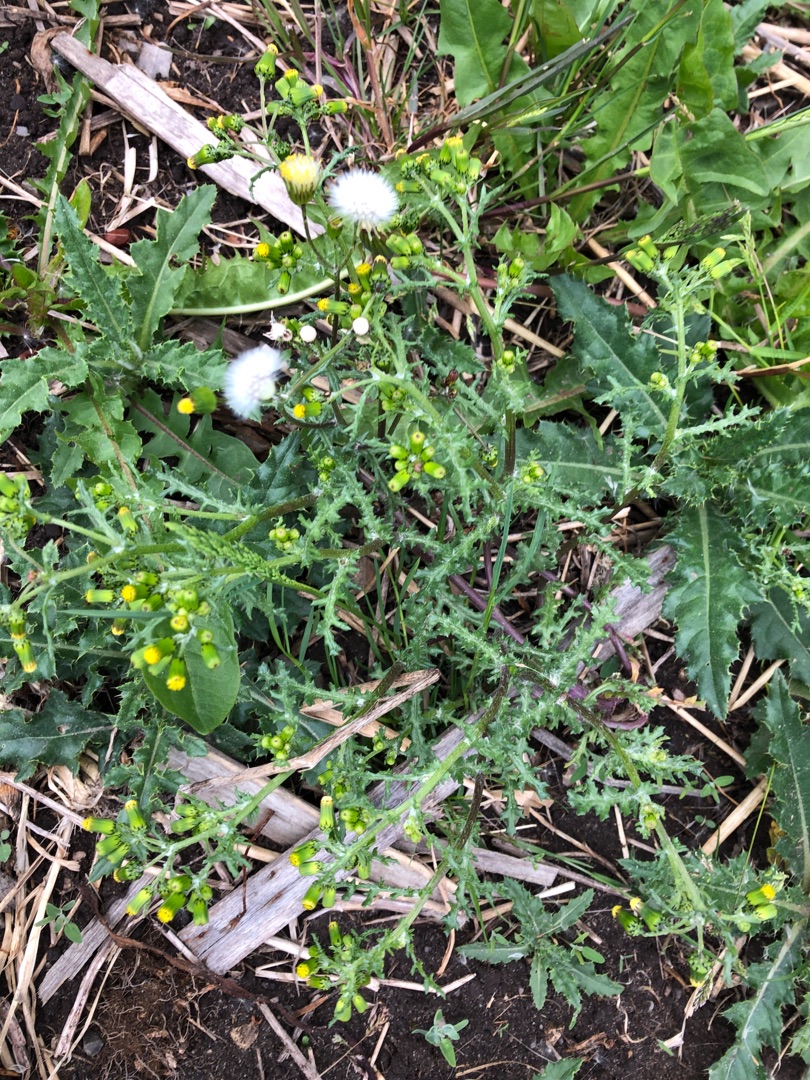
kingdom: Plantae
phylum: Tracheophyta
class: Magnoliopsida
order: Asterales
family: Asteraceae
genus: Senecio
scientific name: Senecio vulgaris
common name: Almindelig brandbæger
